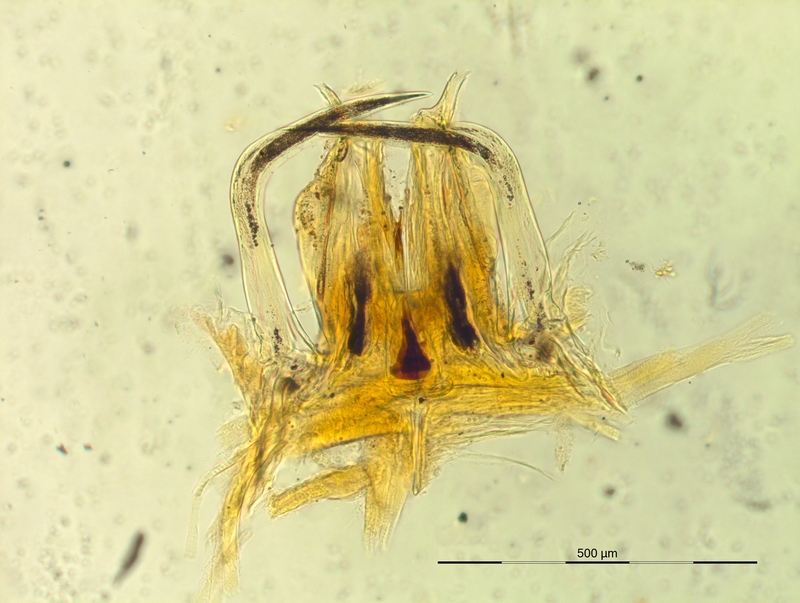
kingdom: Animalia
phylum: Arthropoda
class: Diplopoda
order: Chordeumatida
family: Craspedosomatidae
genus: Oxydactylon
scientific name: Oxydactylon apenninorum
